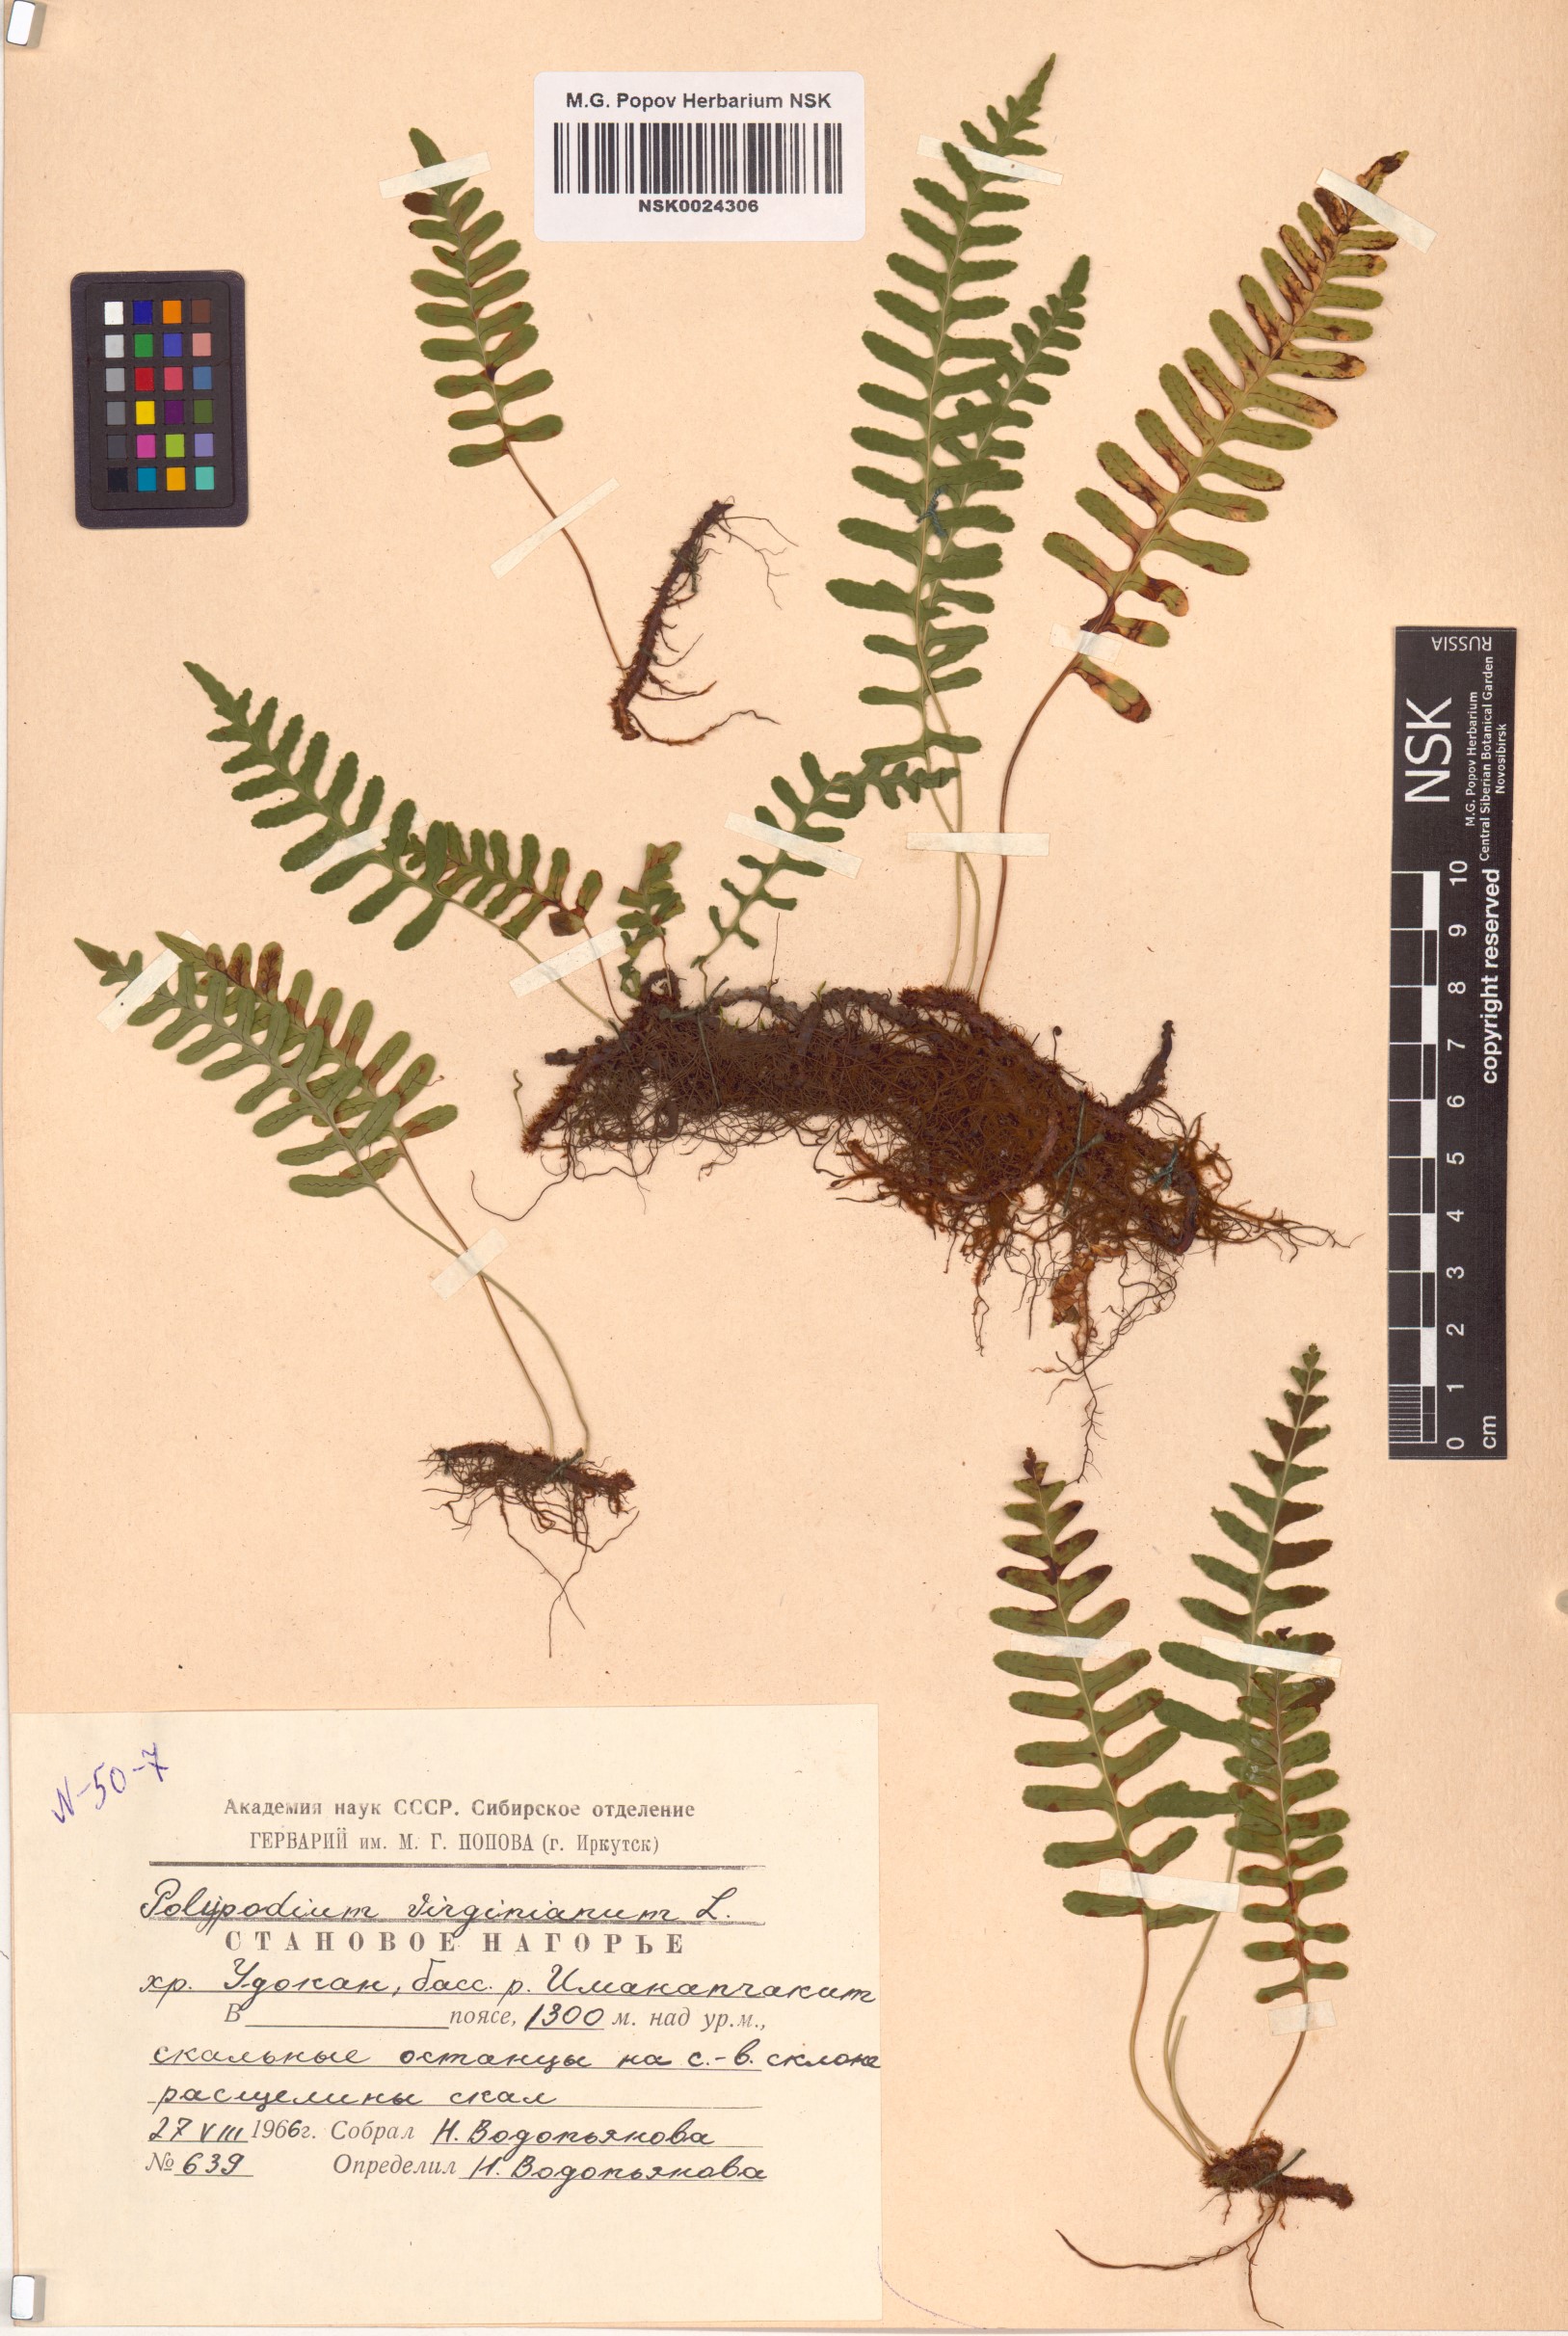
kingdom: Plantae
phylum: Tracheophyta
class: Polypodiopsida
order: Polypodiales
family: Polypodiaceae
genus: Polypodium
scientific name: Polypodium virginianum
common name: American wall fern
